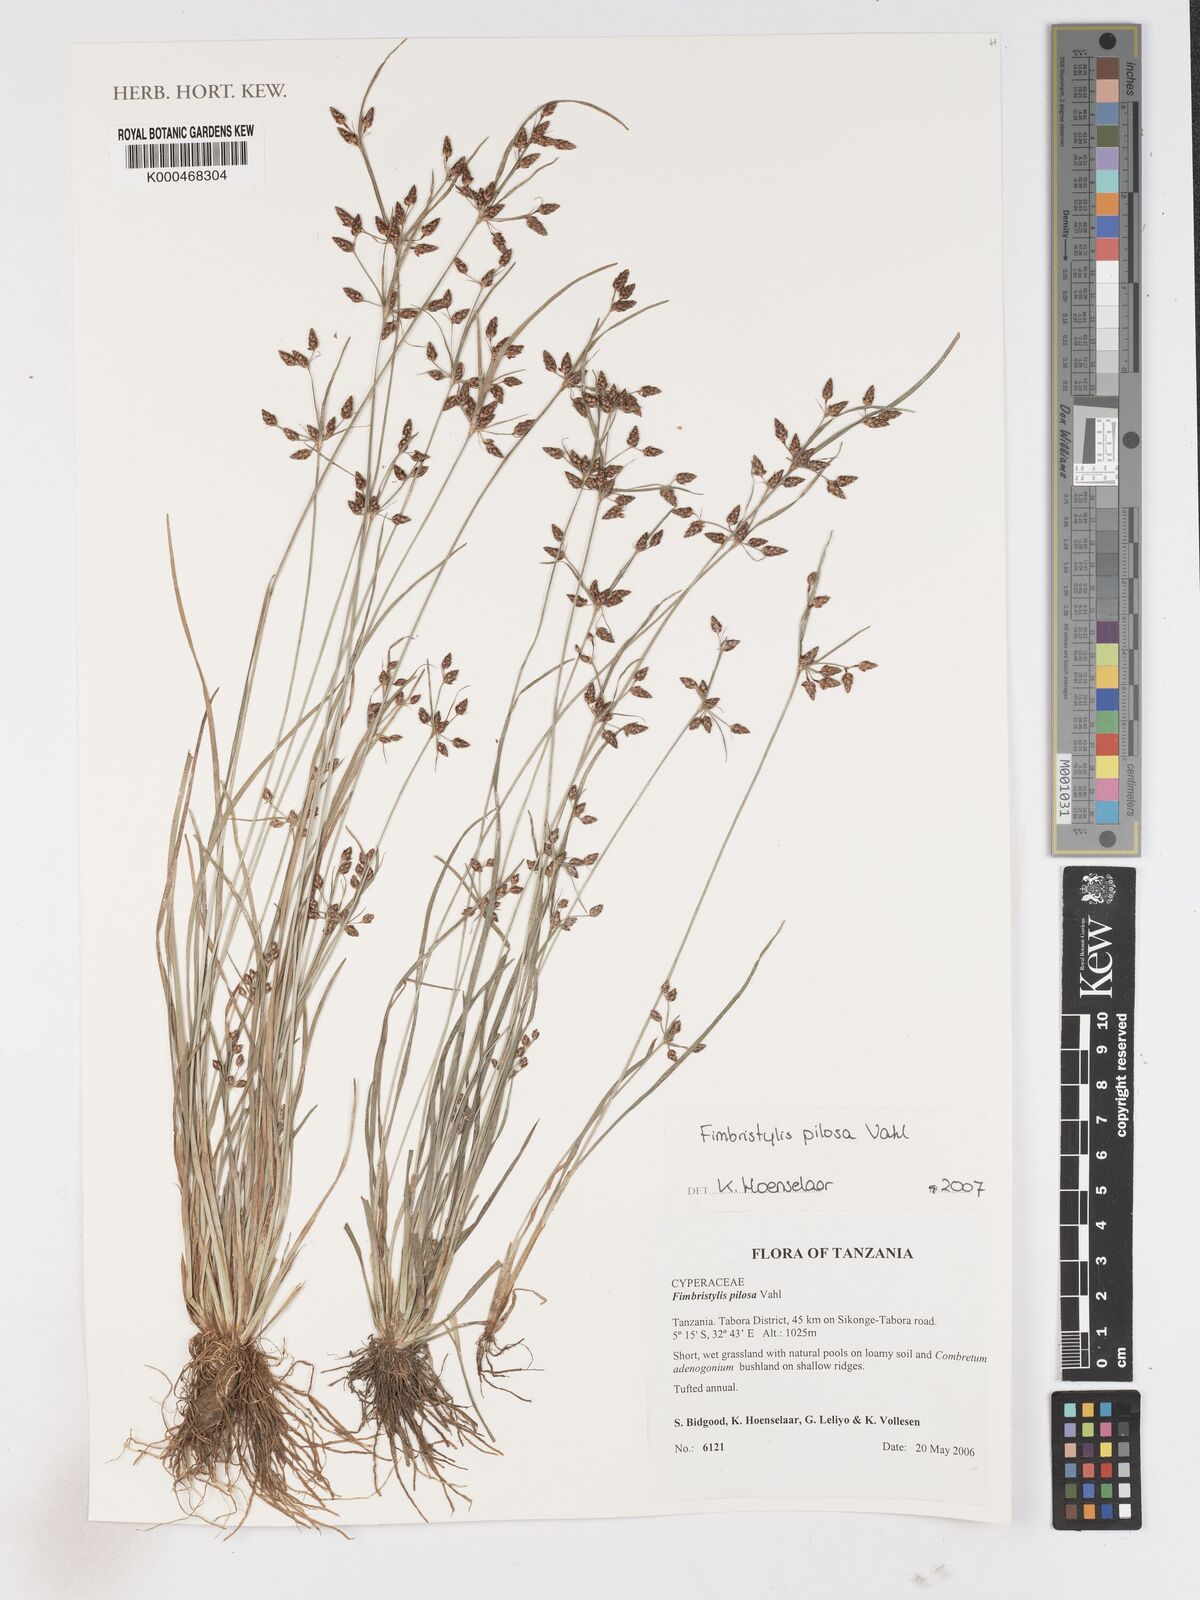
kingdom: Plantae
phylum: Tracheophyta
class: Liliopsida
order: Poales
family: Cyperaceae
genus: Fimbristylis
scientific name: Fimbristylis pilosa
